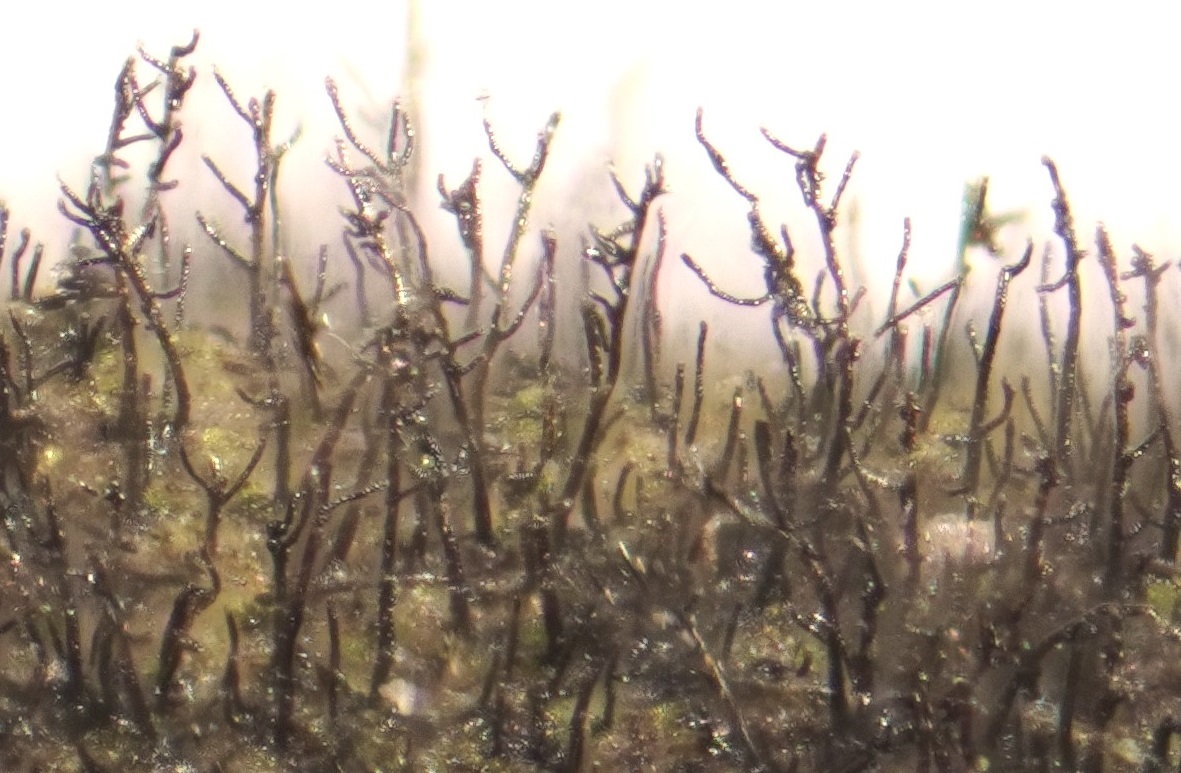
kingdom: Fungi
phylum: Ascomycota
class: Dothideomycetes
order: Pleosporales
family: Massarinaceae
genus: Helminthosporium
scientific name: Helminthosporium velutinum
